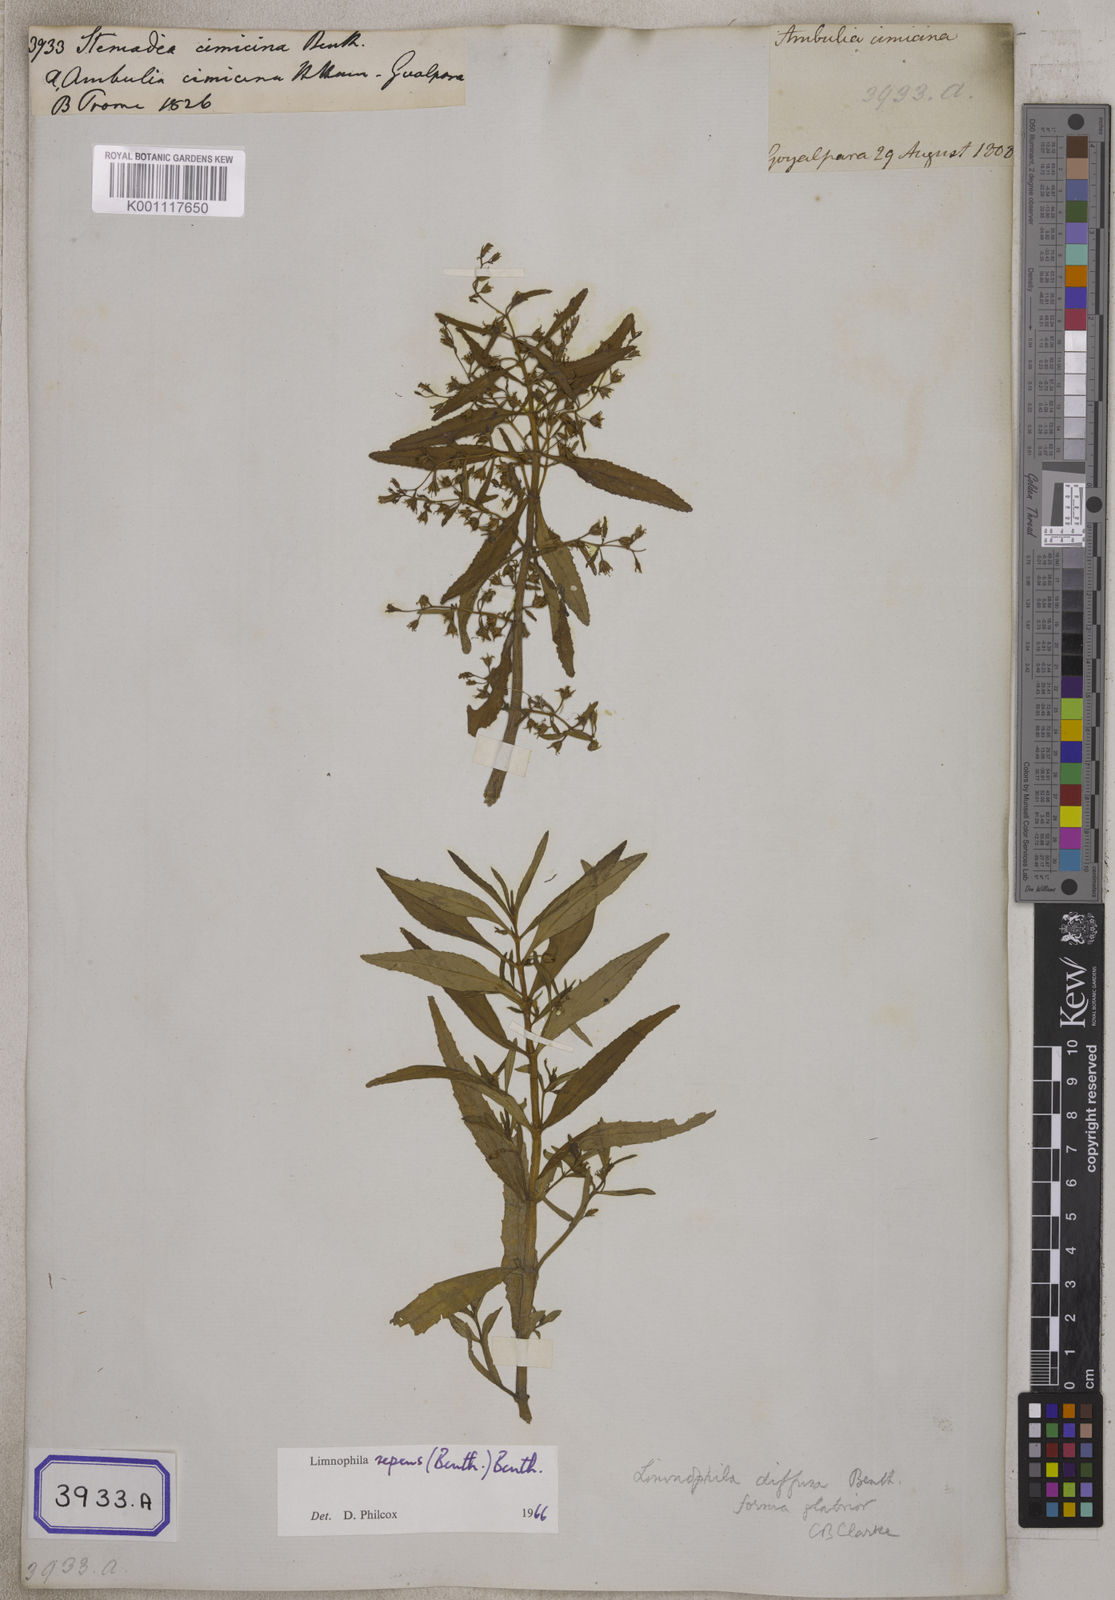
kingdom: Plantae
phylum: Tracheophyta
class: Magnoliopsida
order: Lamiales
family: Plantaginaceae
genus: Limnophila
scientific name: Limnophila pulcherrima
